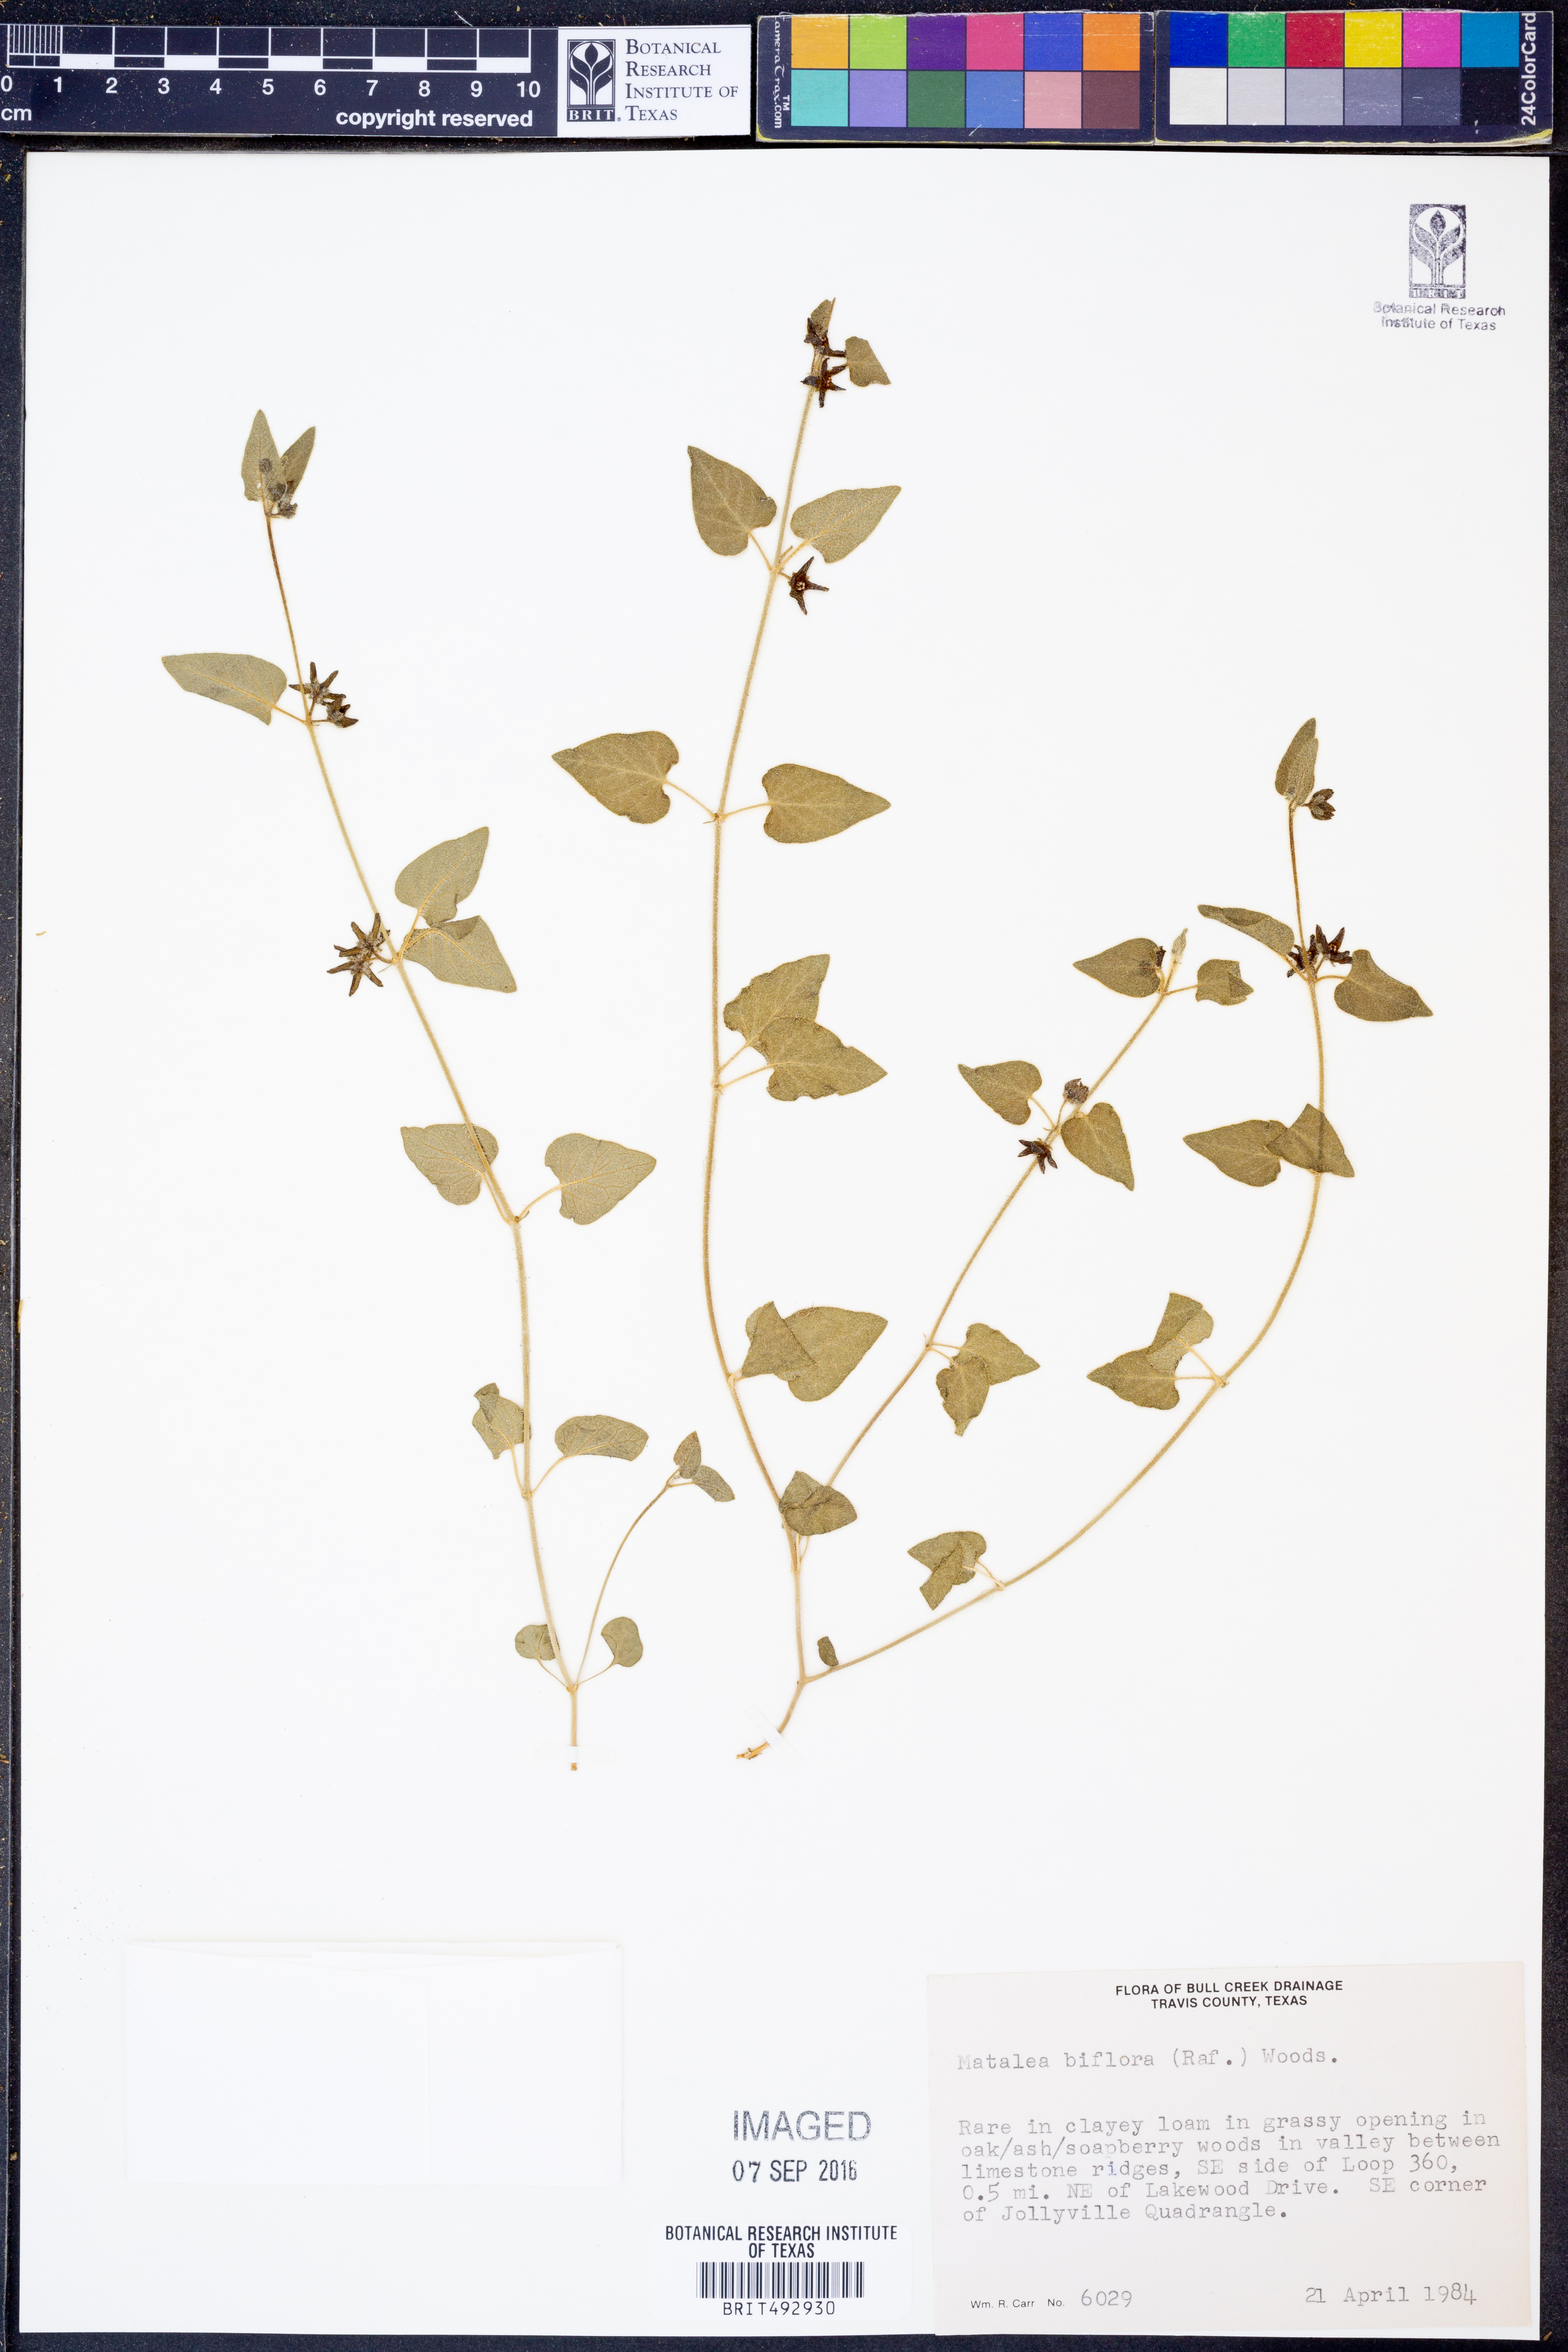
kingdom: Plantae
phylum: Tracheophyta
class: Magnoliopsida
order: Gentianales
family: Apocynaceae
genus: Chthamalia
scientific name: Chthamalia biflora
